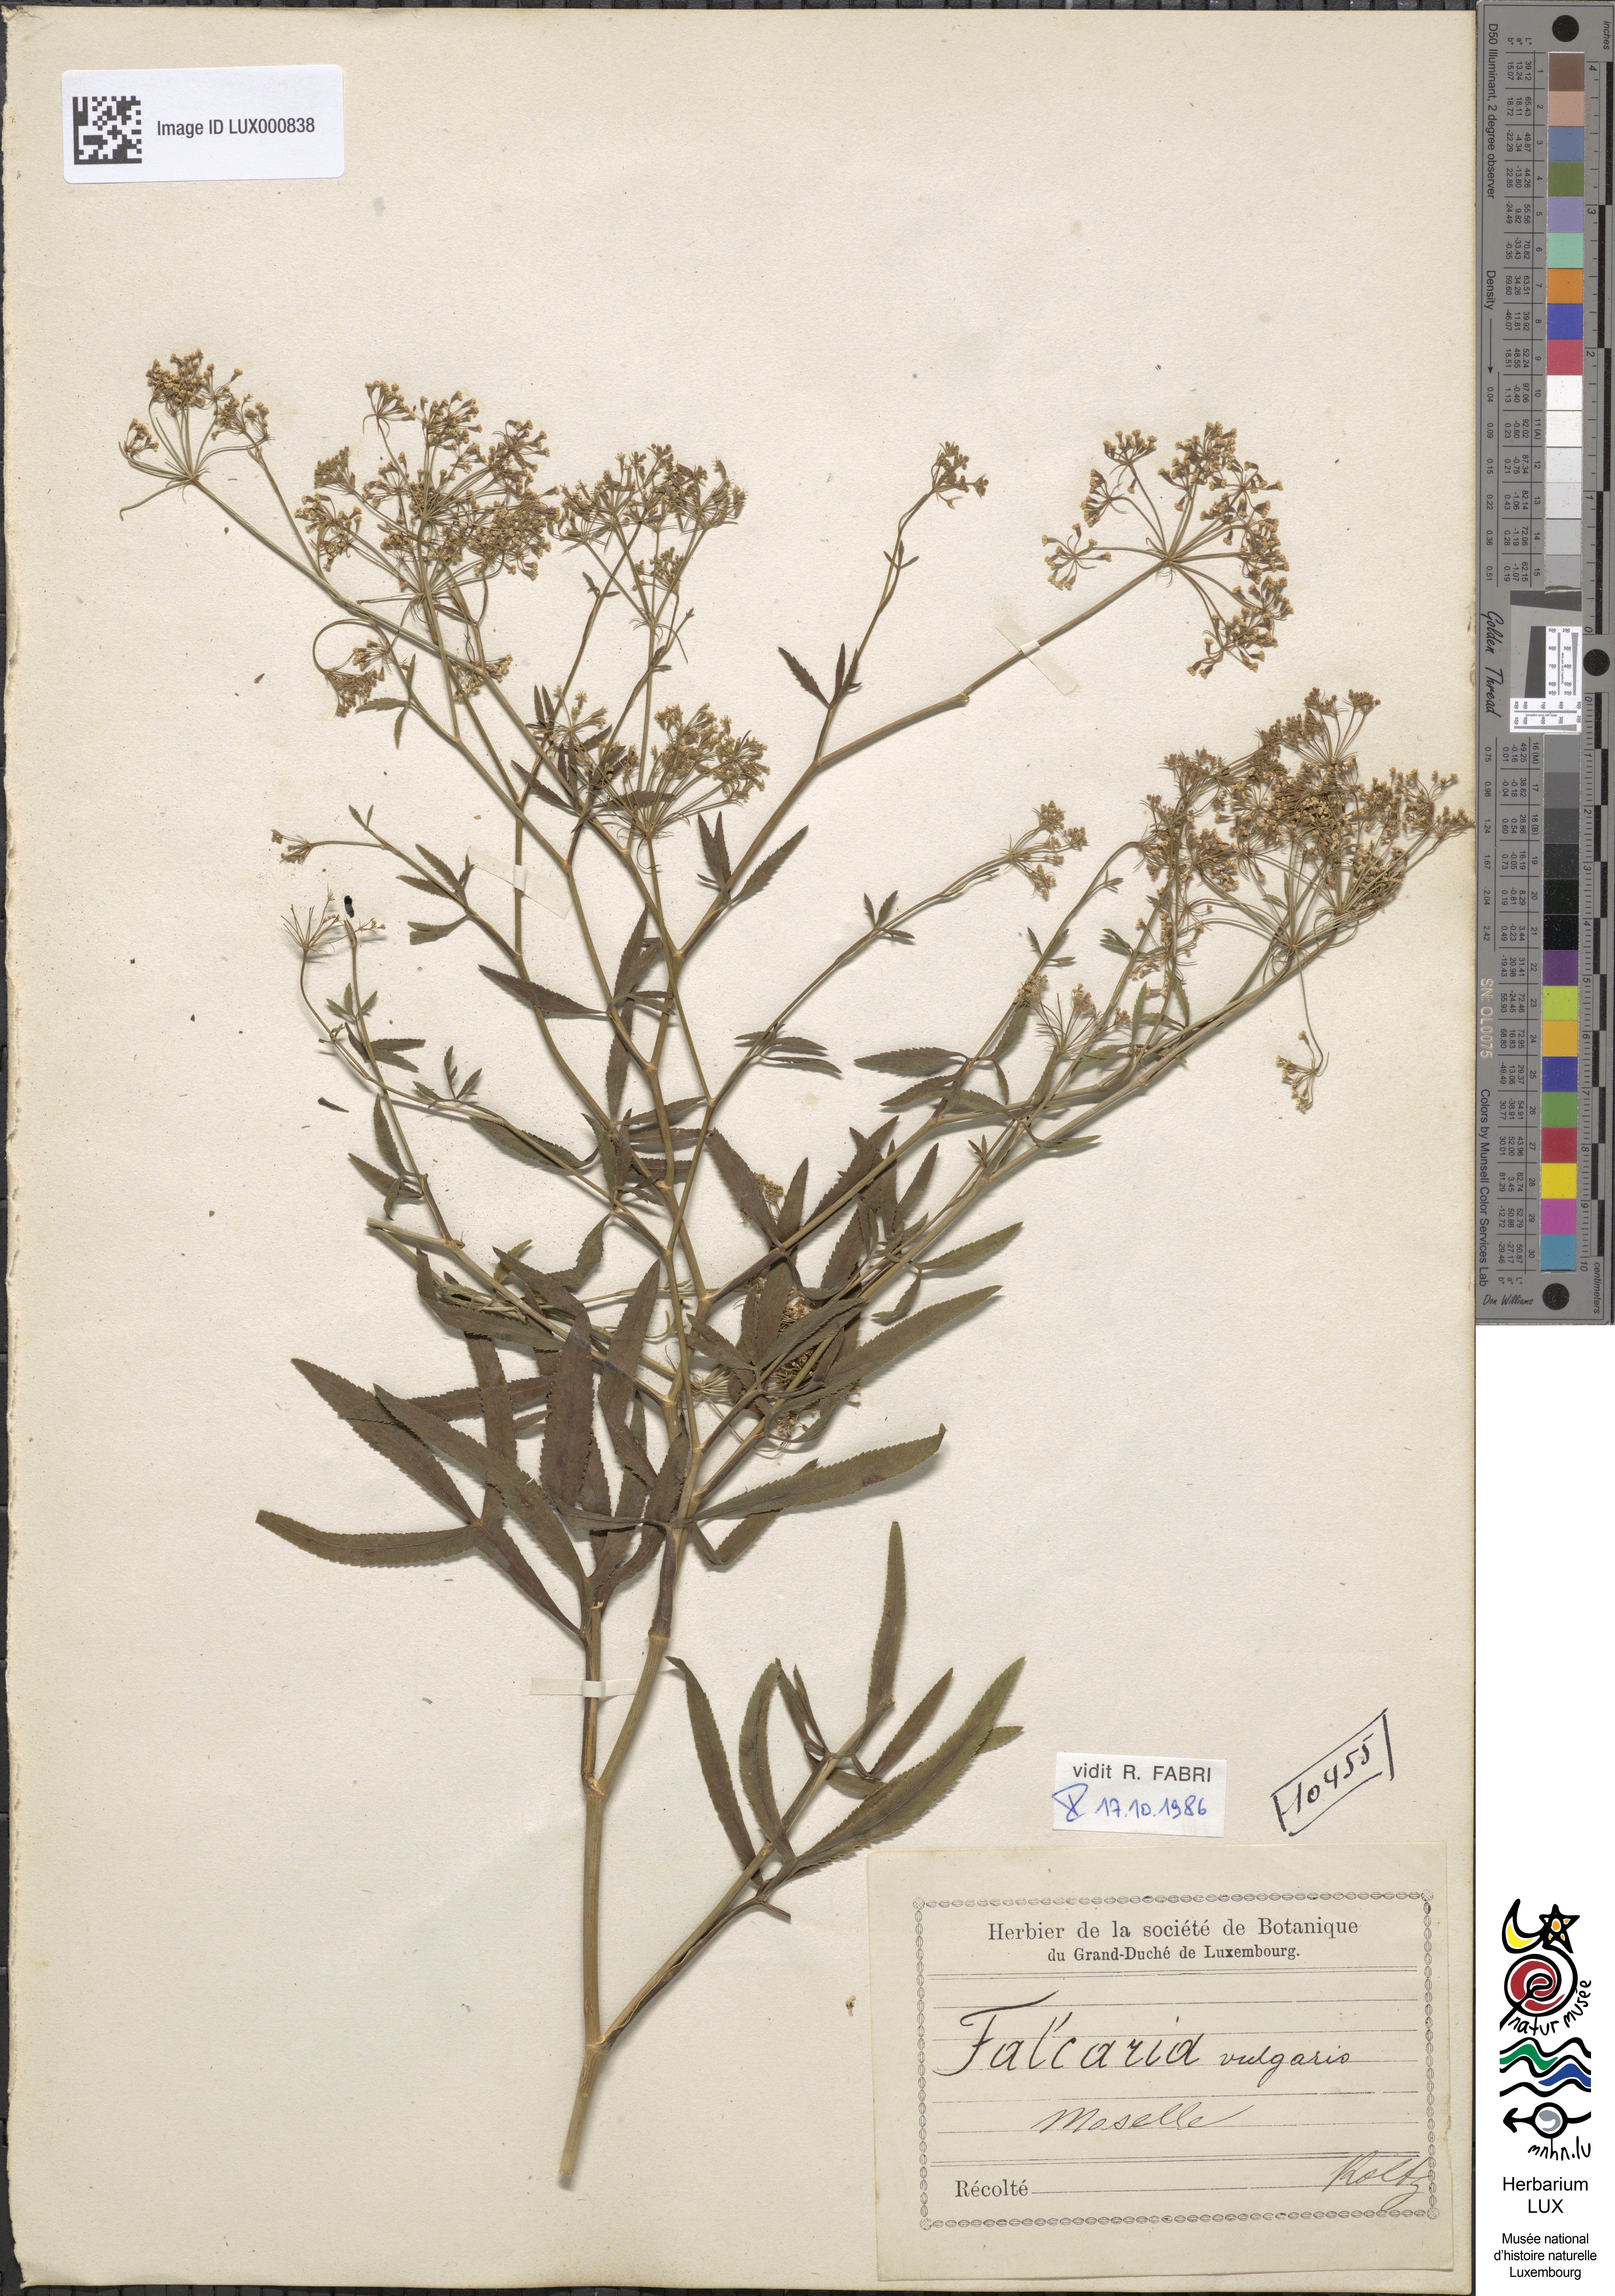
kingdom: Plantae
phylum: Tracheophyta
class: Magnoliopsida
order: Apiales
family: Apiaceae
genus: Falcaria
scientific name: Falcaria vulgaris
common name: Longleaf
